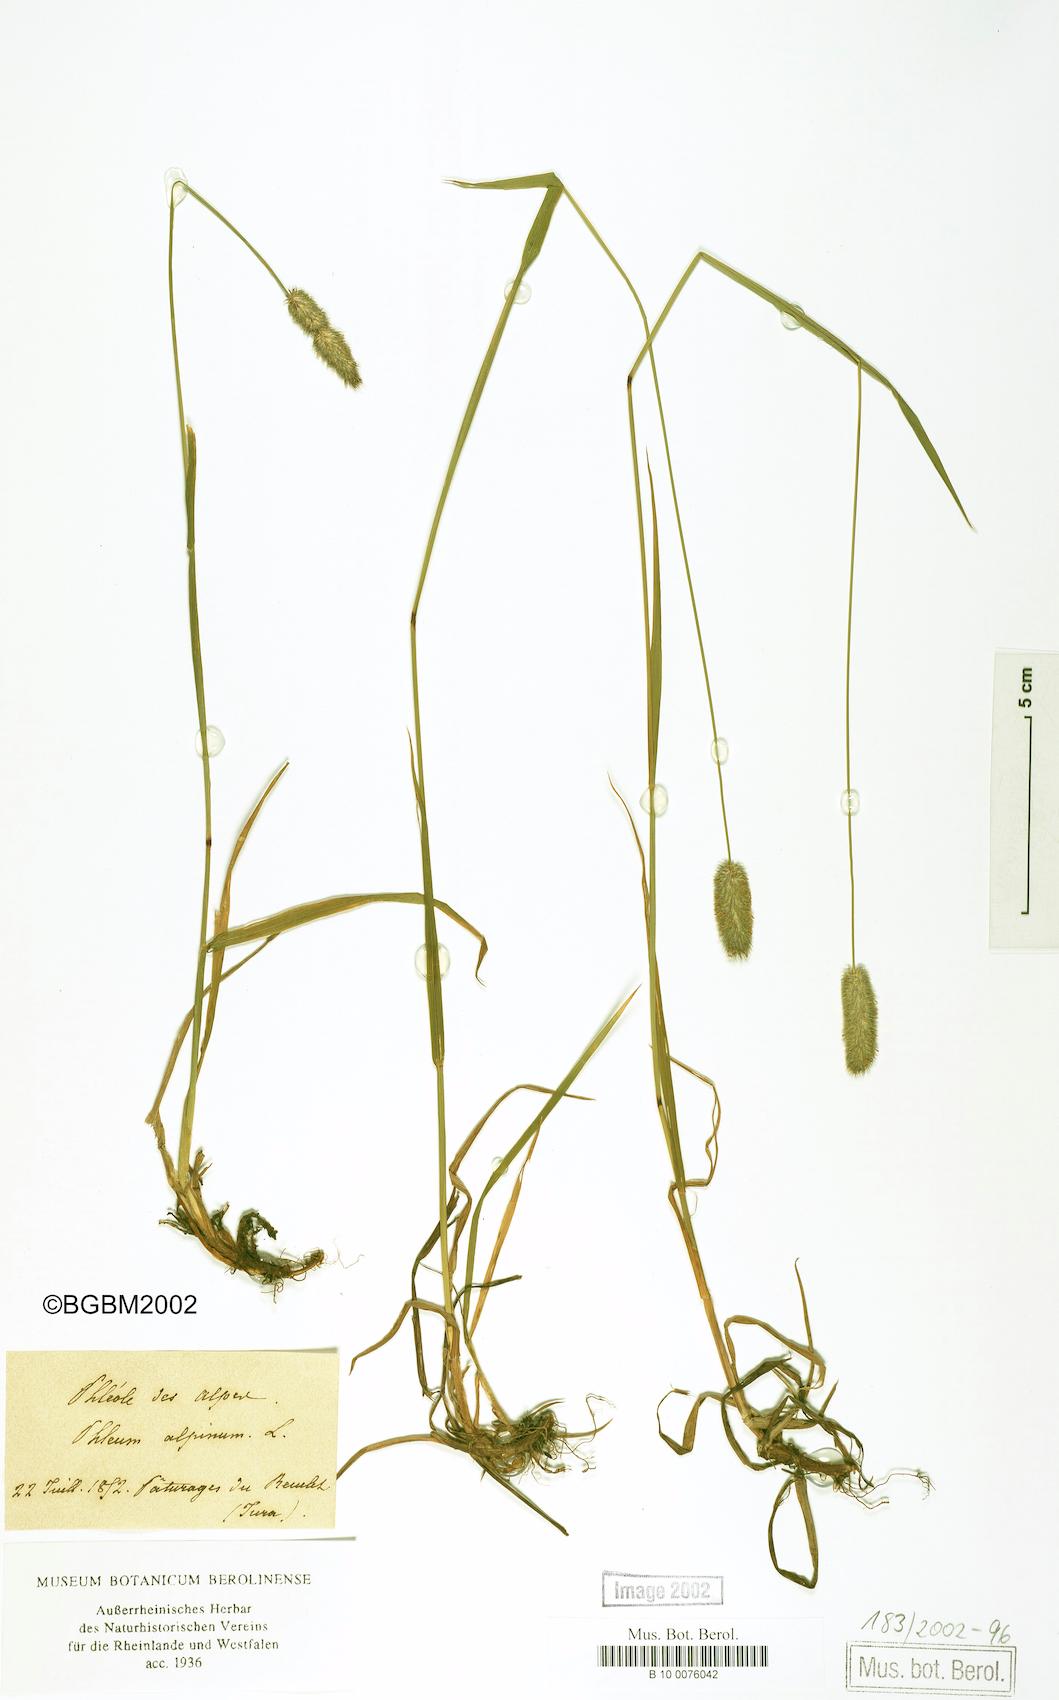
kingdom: Plantae
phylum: Tracheophyta
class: Liliopsida
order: Poales
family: Poaceae
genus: Phleum
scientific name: Phleum alpinum
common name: Alpine cat's-tail
